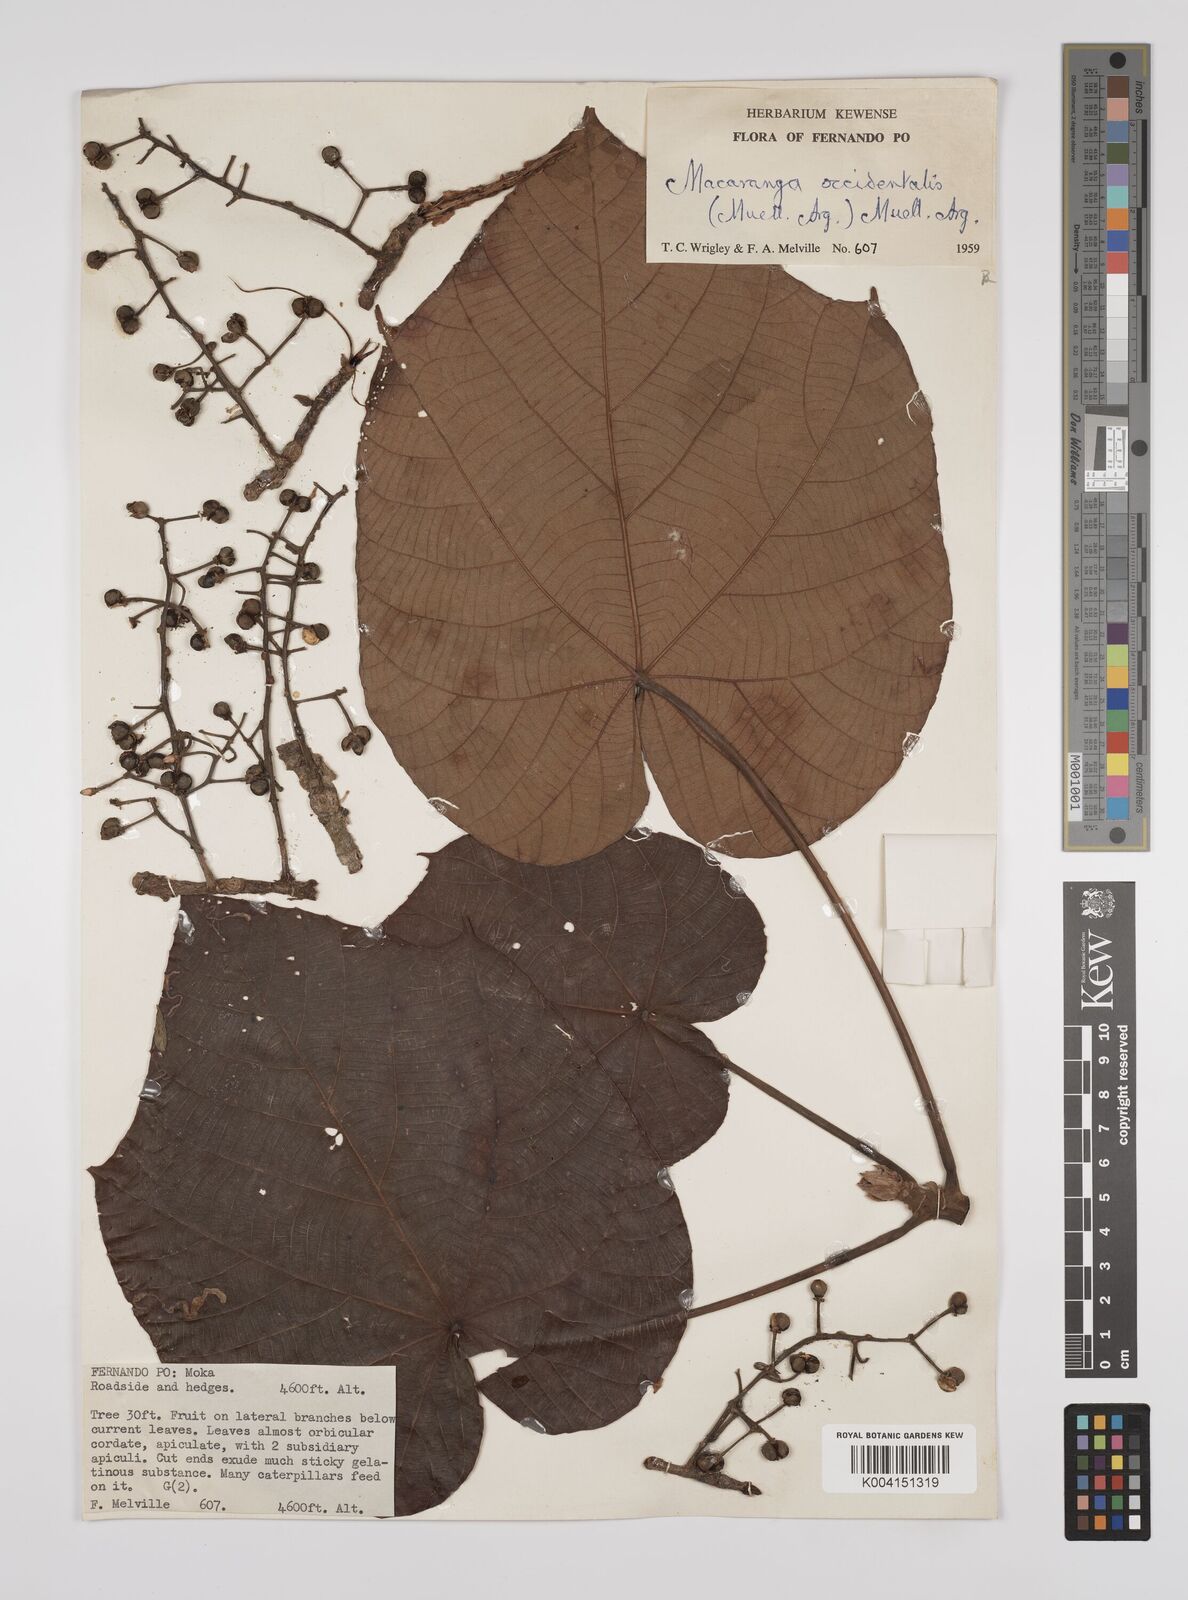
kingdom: Plantae
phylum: Tracheophyta
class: Magnoliopsida
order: Malpighiales
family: Euphorbiaceae
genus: Macaranga
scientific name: Macaranga occidentalis
